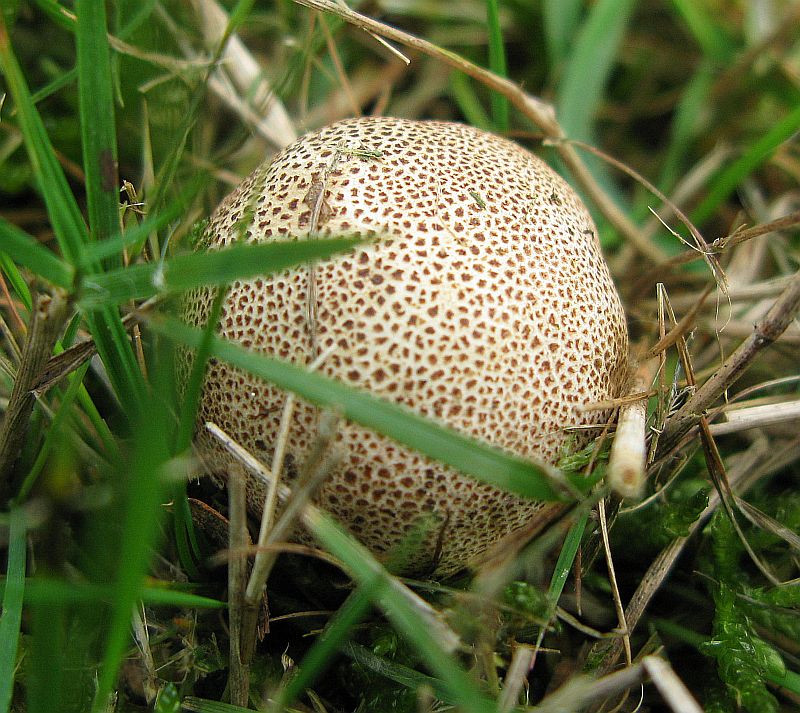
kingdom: Fungi
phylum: Basidiomycota
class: Agaricomycetes
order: Boletales
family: Sclerodermataceae
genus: Scleroderma
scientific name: Scleroderma areolatum
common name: plettet bruskbold
